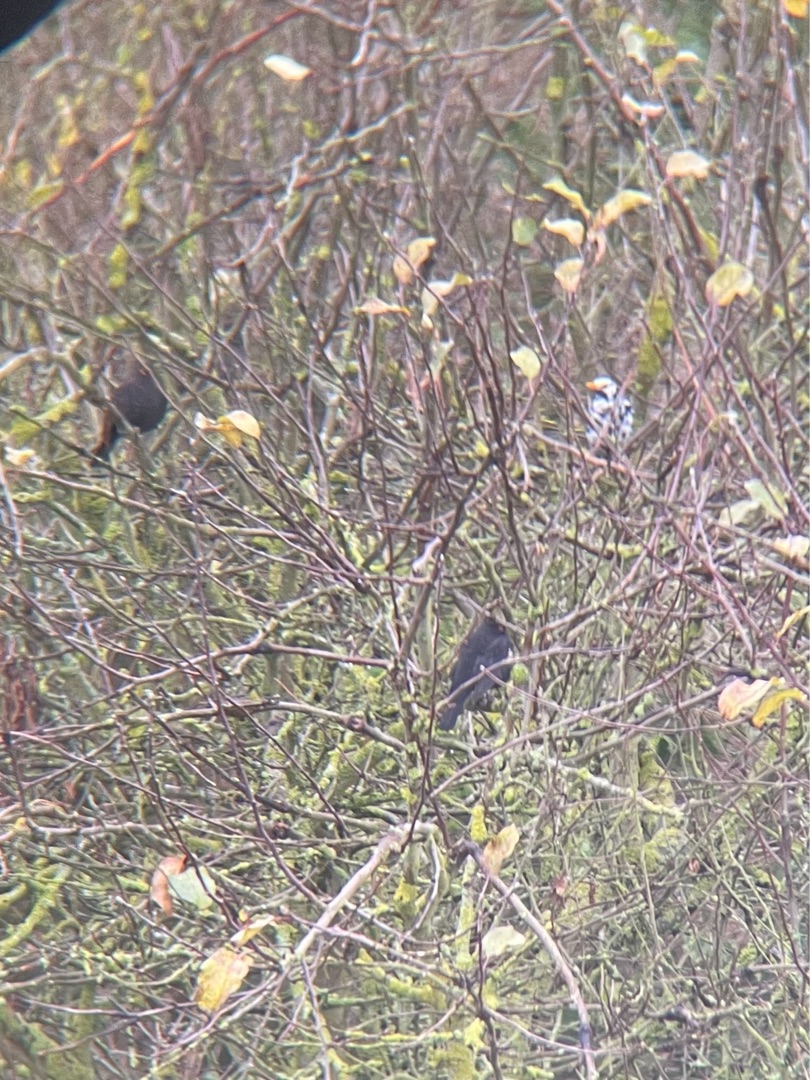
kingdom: Animalia
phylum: Chordata
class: Aves
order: Passeriformes
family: Turdidae
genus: Turdus
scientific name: Turdus merula
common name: Solsort
